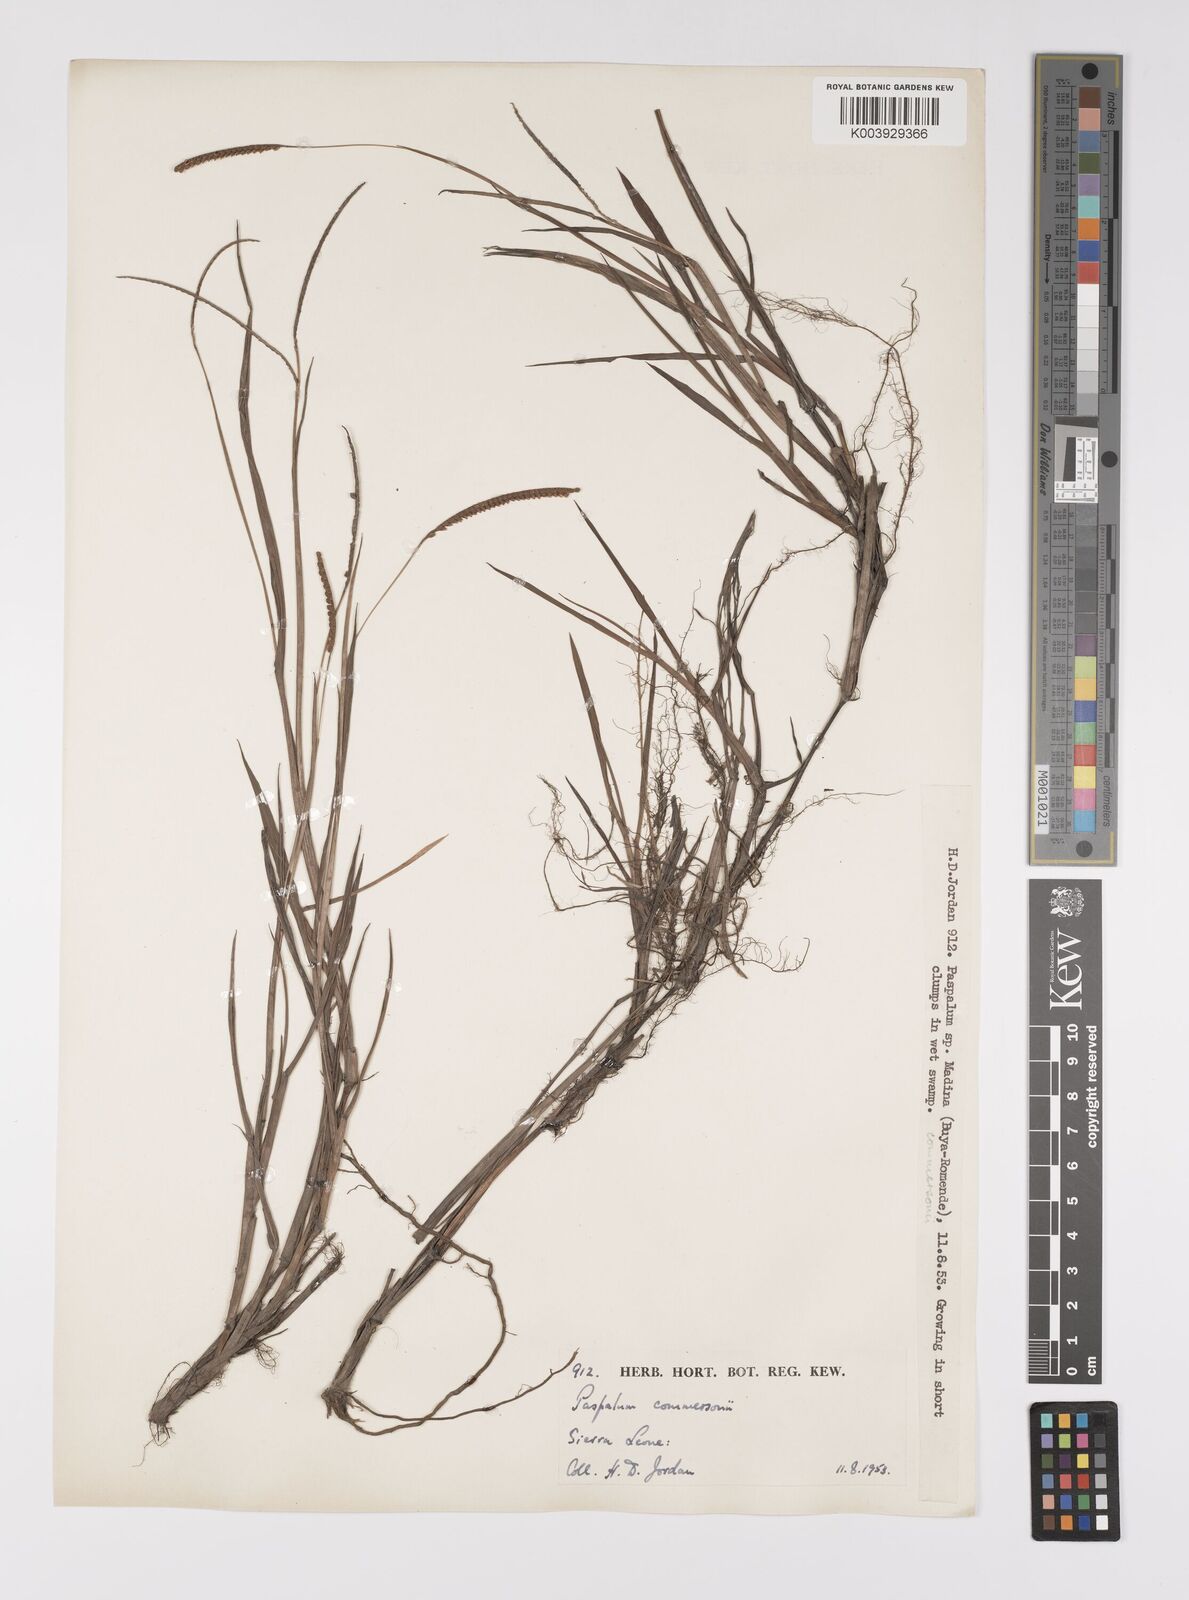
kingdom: Plantae
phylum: Tracheophyta
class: Liliopsida
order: Poales
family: Poaceae
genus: Paspalum
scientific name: Paspalum scrobiculatum
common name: Kodo millet
